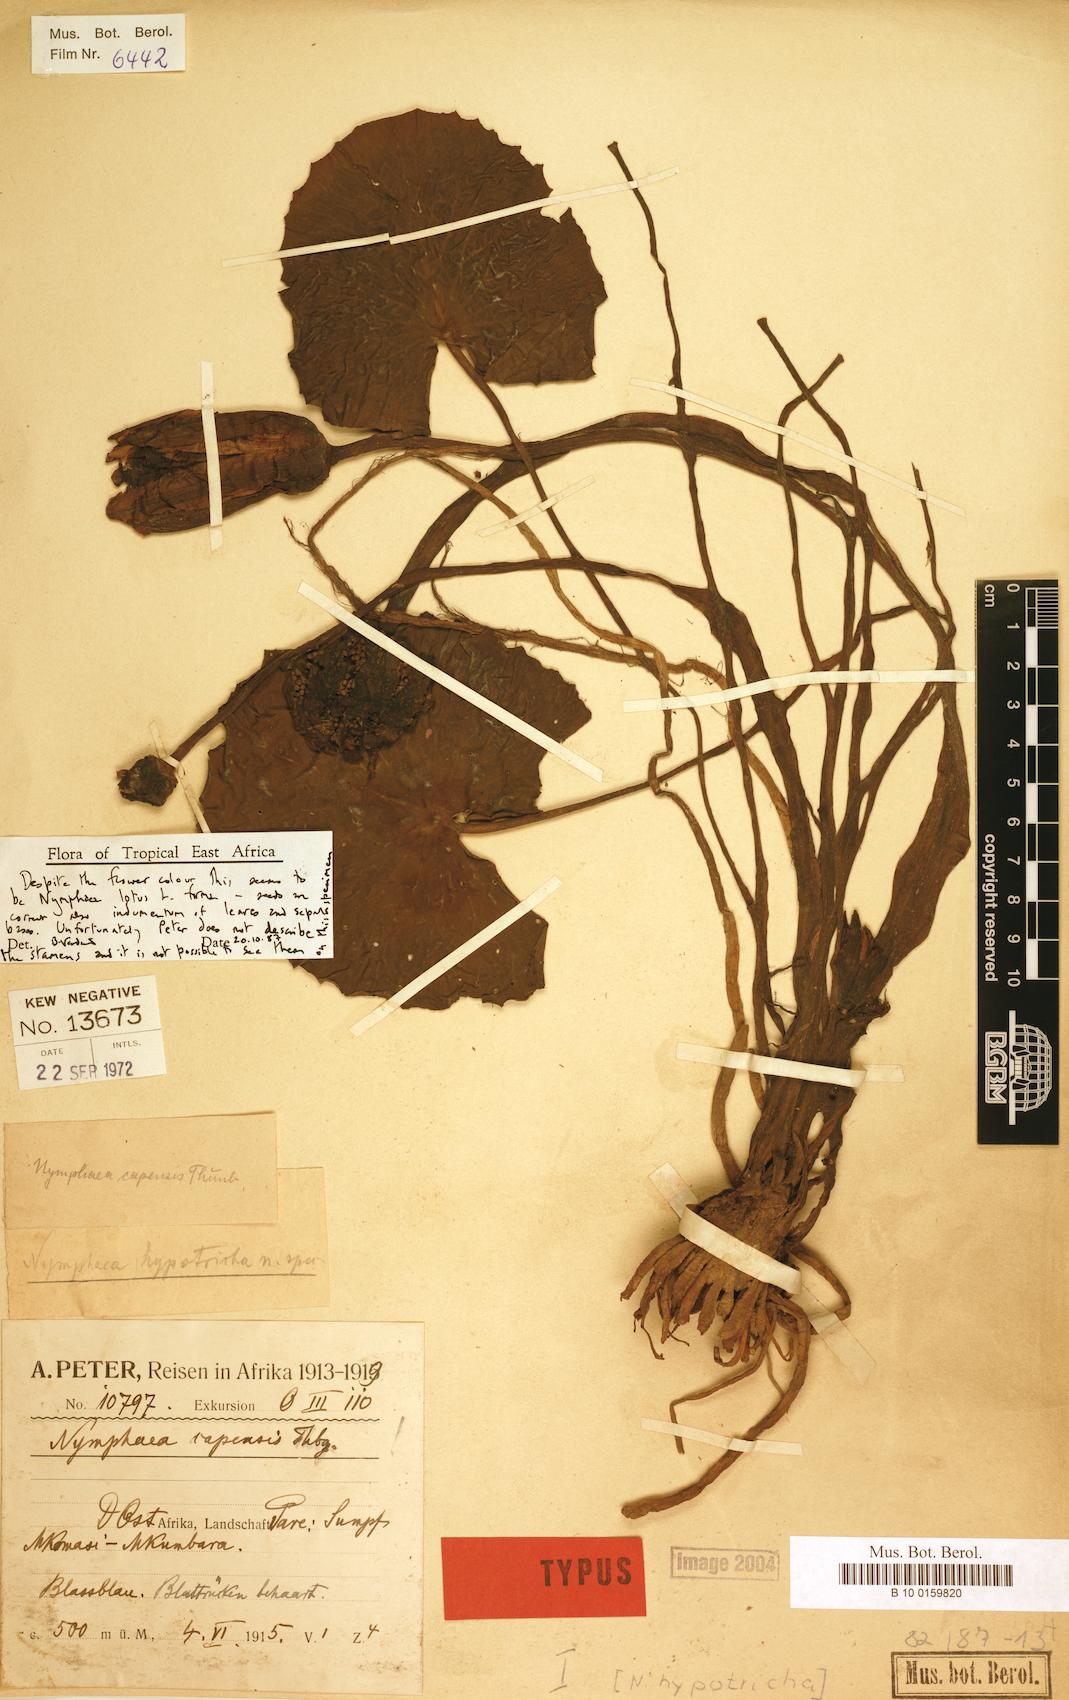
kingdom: Plantae
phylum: Tracheophyta
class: Magnoliopsida
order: Nymphaeales
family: Nymphaeaceae
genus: Nymphaea
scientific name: Nymphaea lotus
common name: White egyptian lotus
